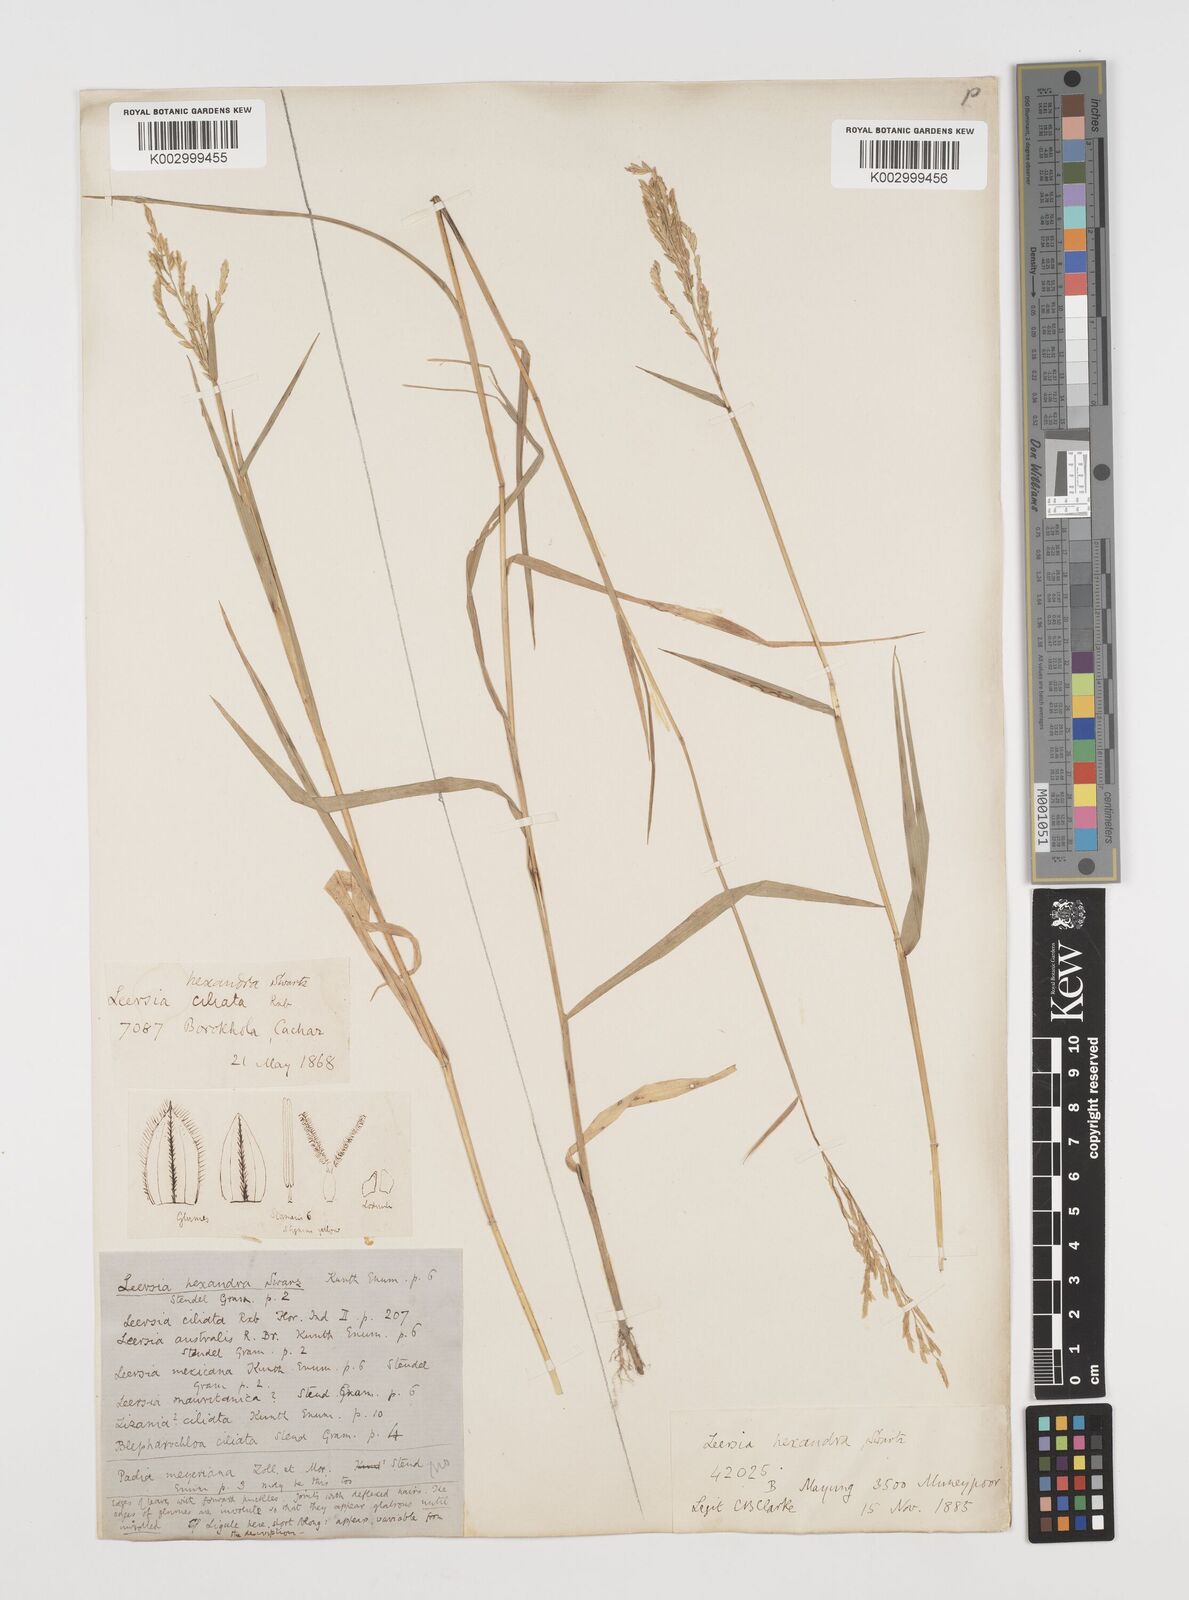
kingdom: Plantae
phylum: Tracheophyta
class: Liliopsida
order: Poales
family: Poaceae
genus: Leersia
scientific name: Leersia hexandra
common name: Southern cut grass
